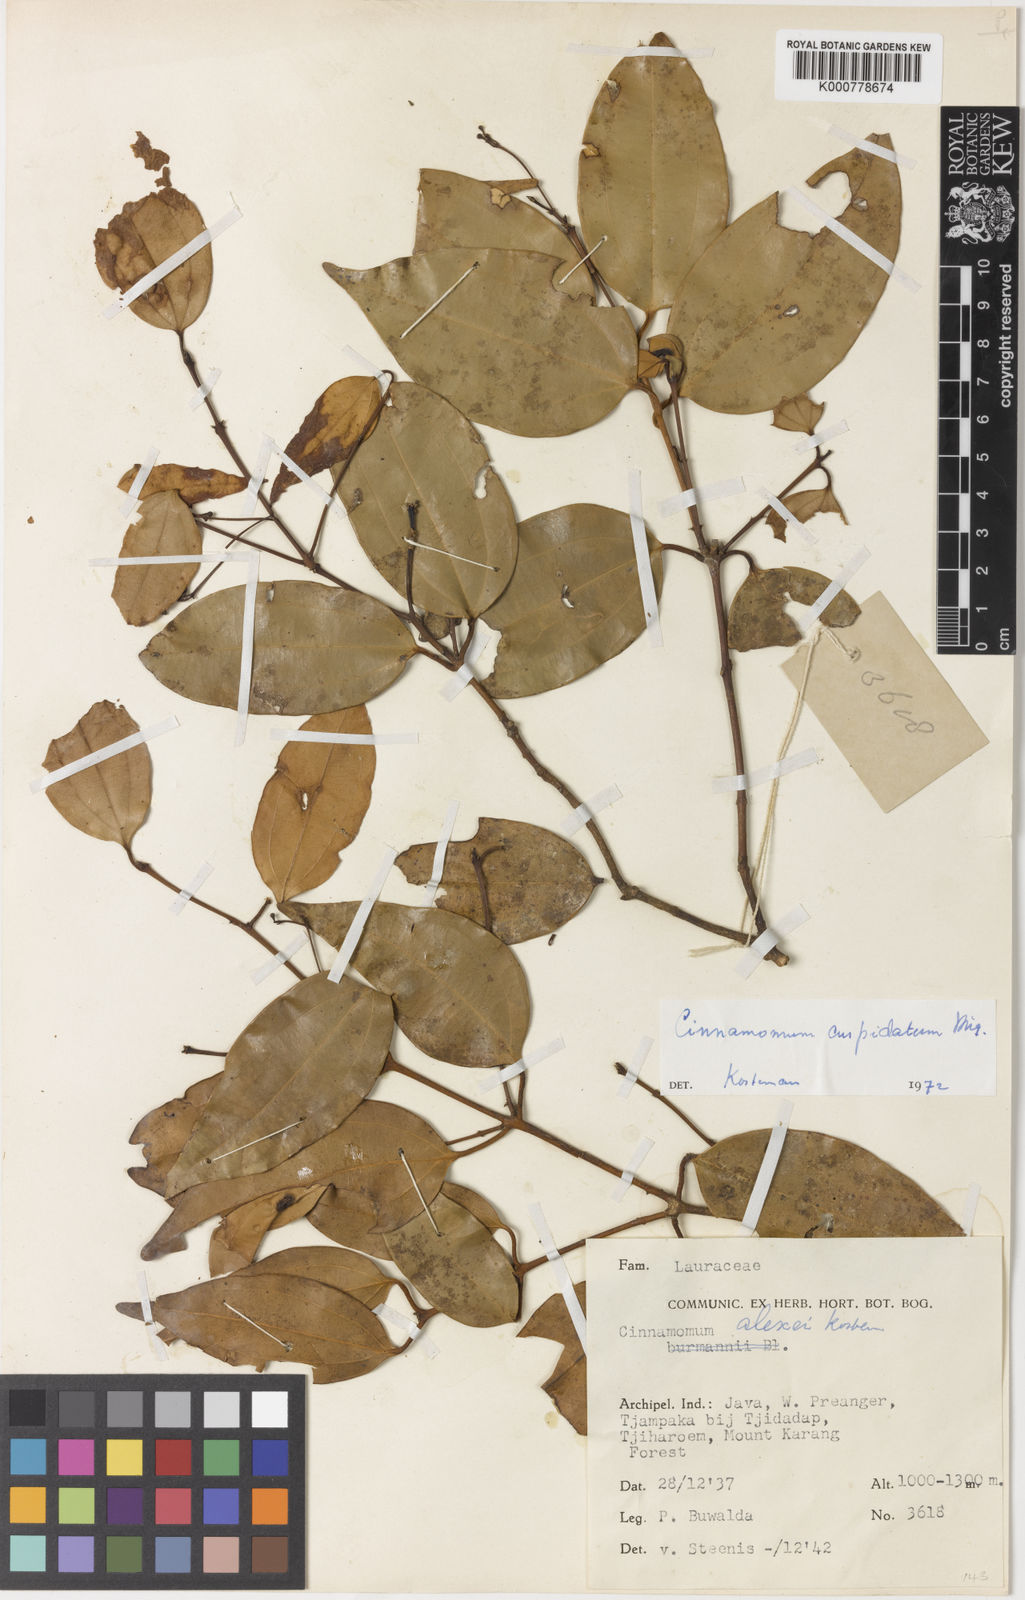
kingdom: Plantae
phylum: Tracheophyta
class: Magnoliopsida
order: Laurales
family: Lauraceae
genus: Cinnamomum
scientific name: Cinnamomum cuspidatum
